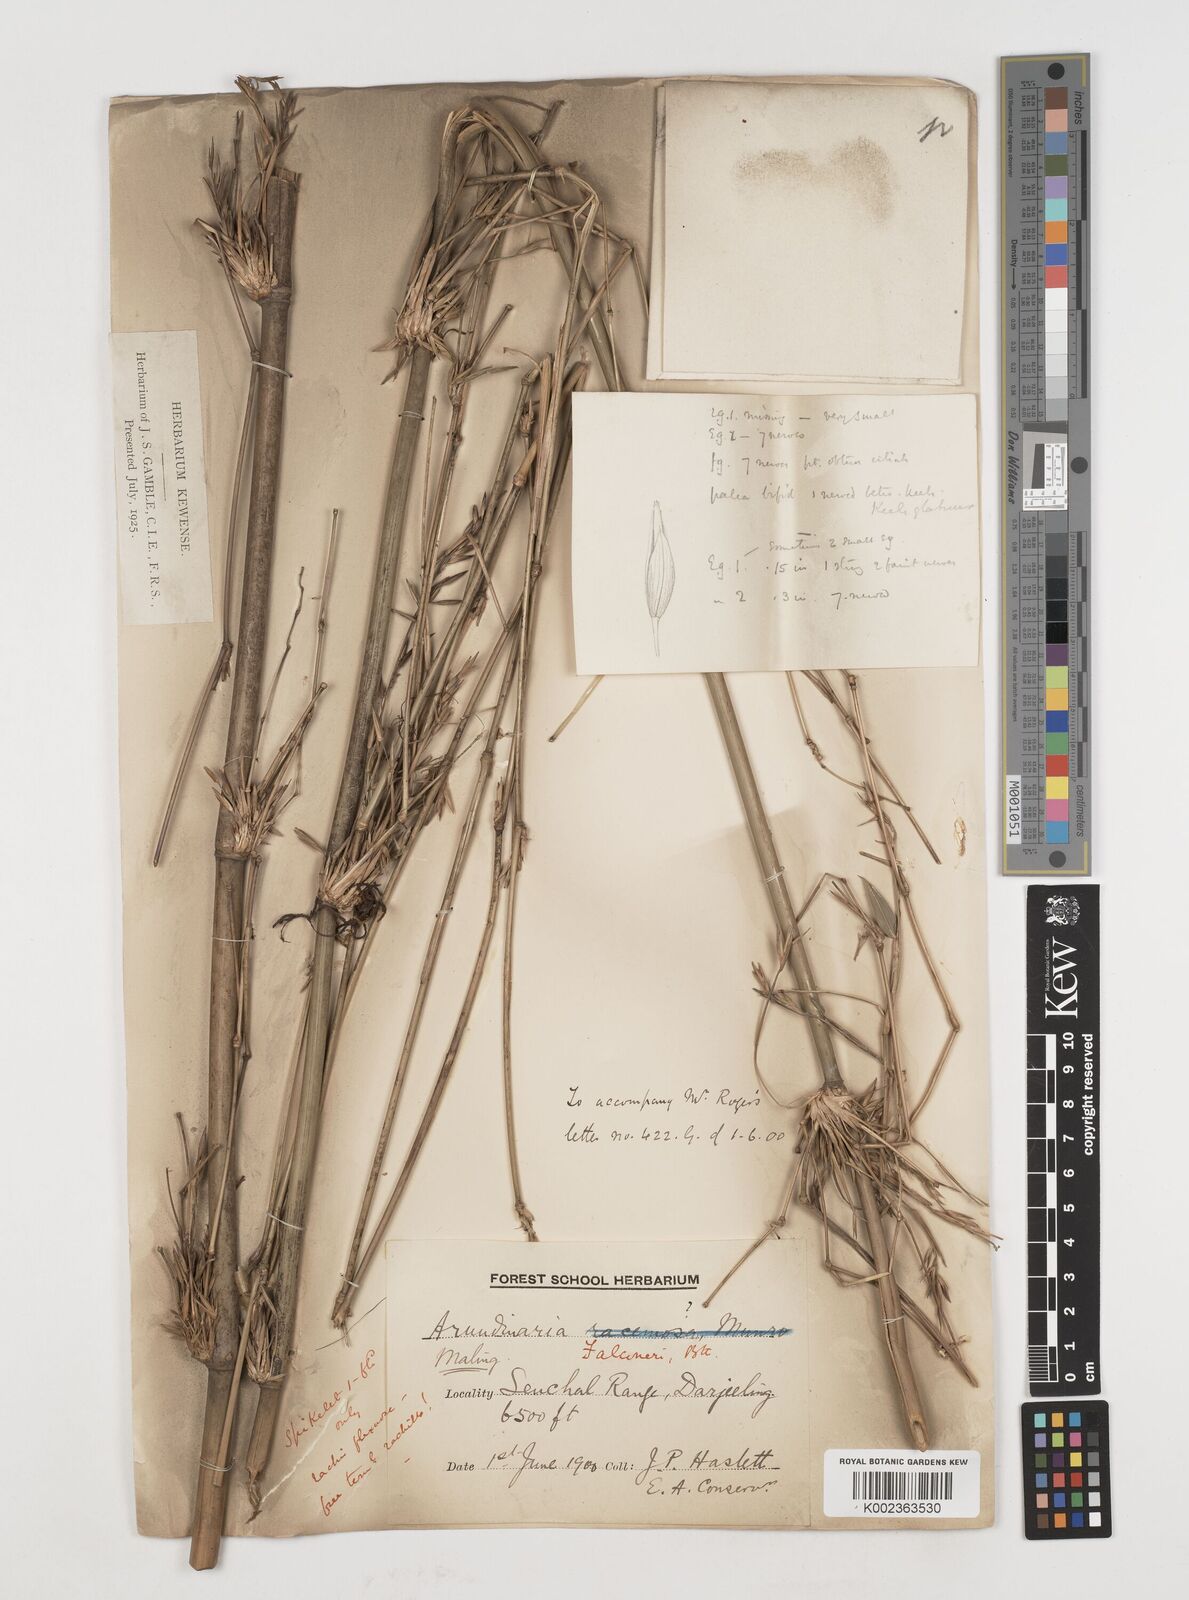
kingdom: Plantae
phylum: Tracheophyta
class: Liliopsida
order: Poales
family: Poaceae
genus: Himalayacalamus
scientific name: Himalayacalamus falconeri
